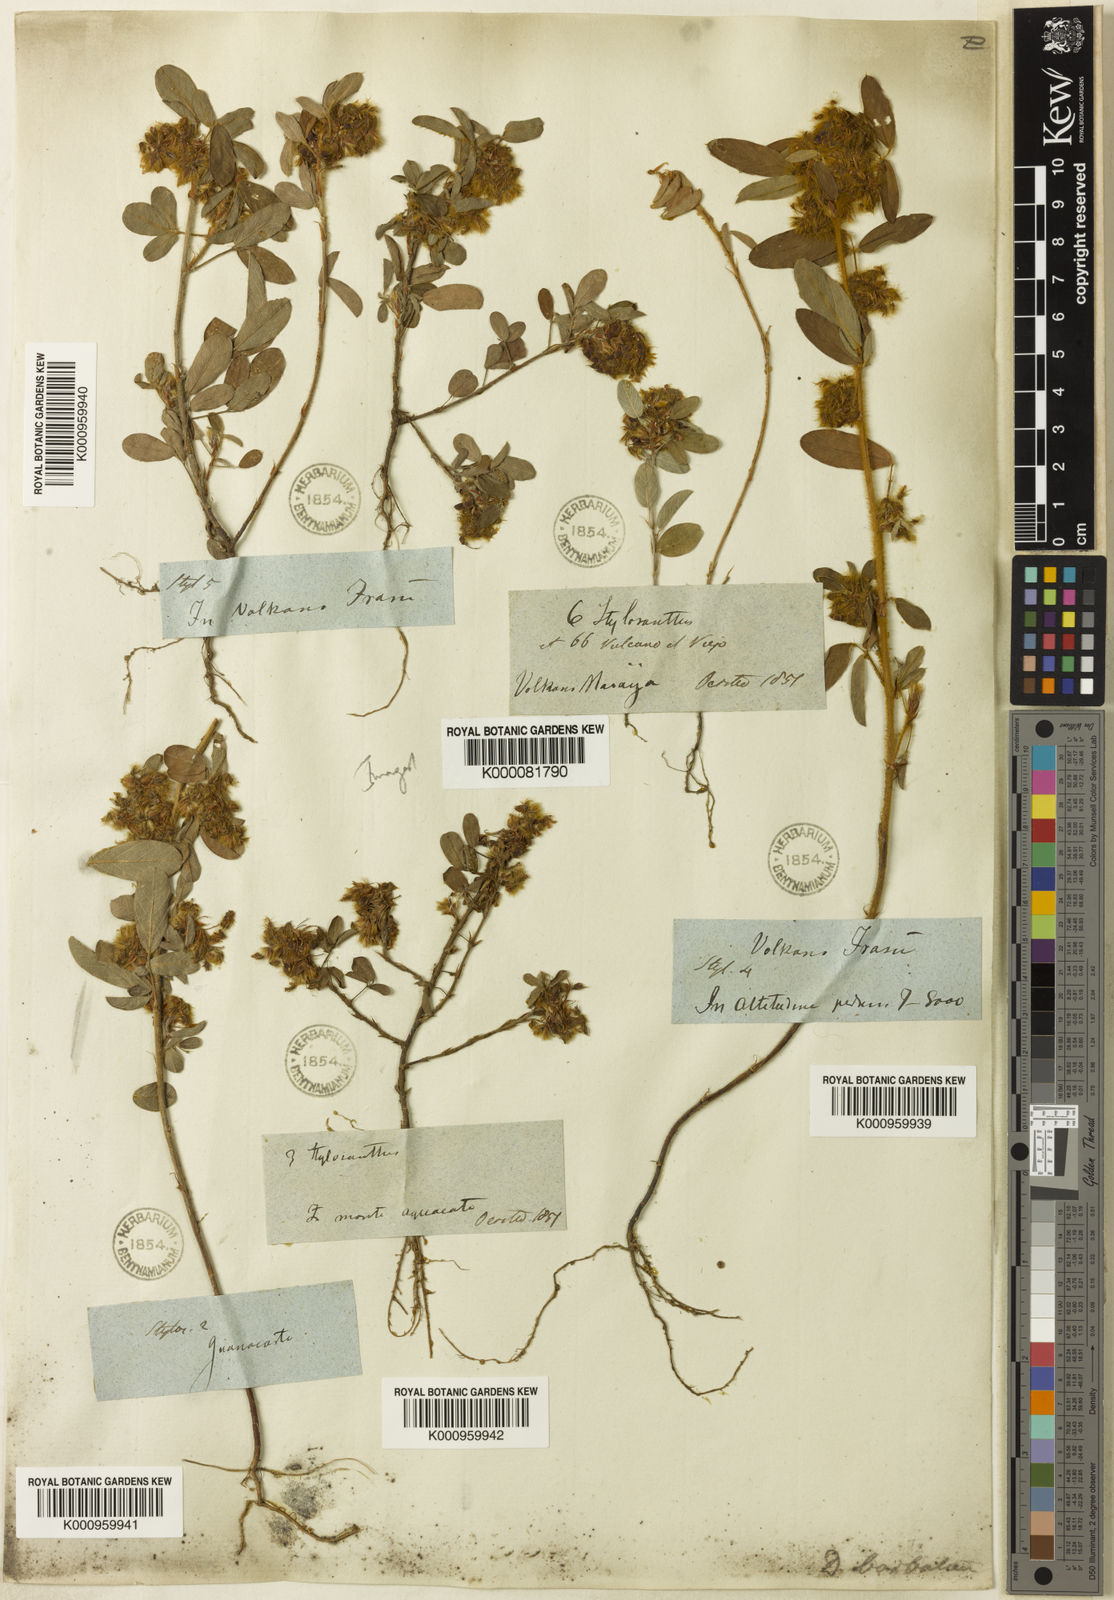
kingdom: Plantae
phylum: Tracheophyta
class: Magnoliopsida
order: Fabales
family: Fabaceae
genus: Grona
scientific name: Grona barbata
